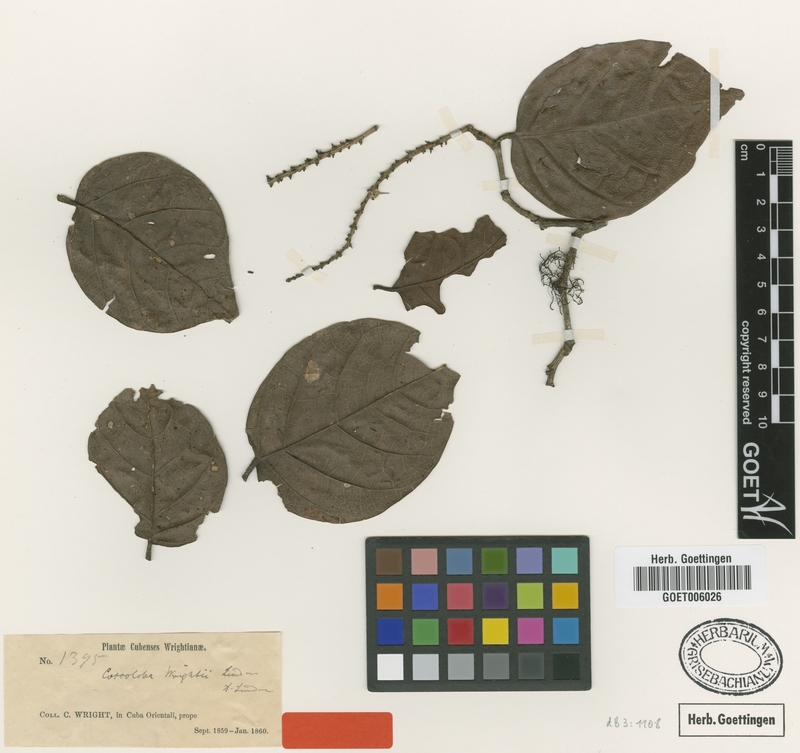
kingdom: Plantae
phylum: Tracheophyta
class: Magnoliopsida
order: Caryophyllales
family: Polygonaceae
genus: Coccoloba
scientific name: Coccoloba wrightii
